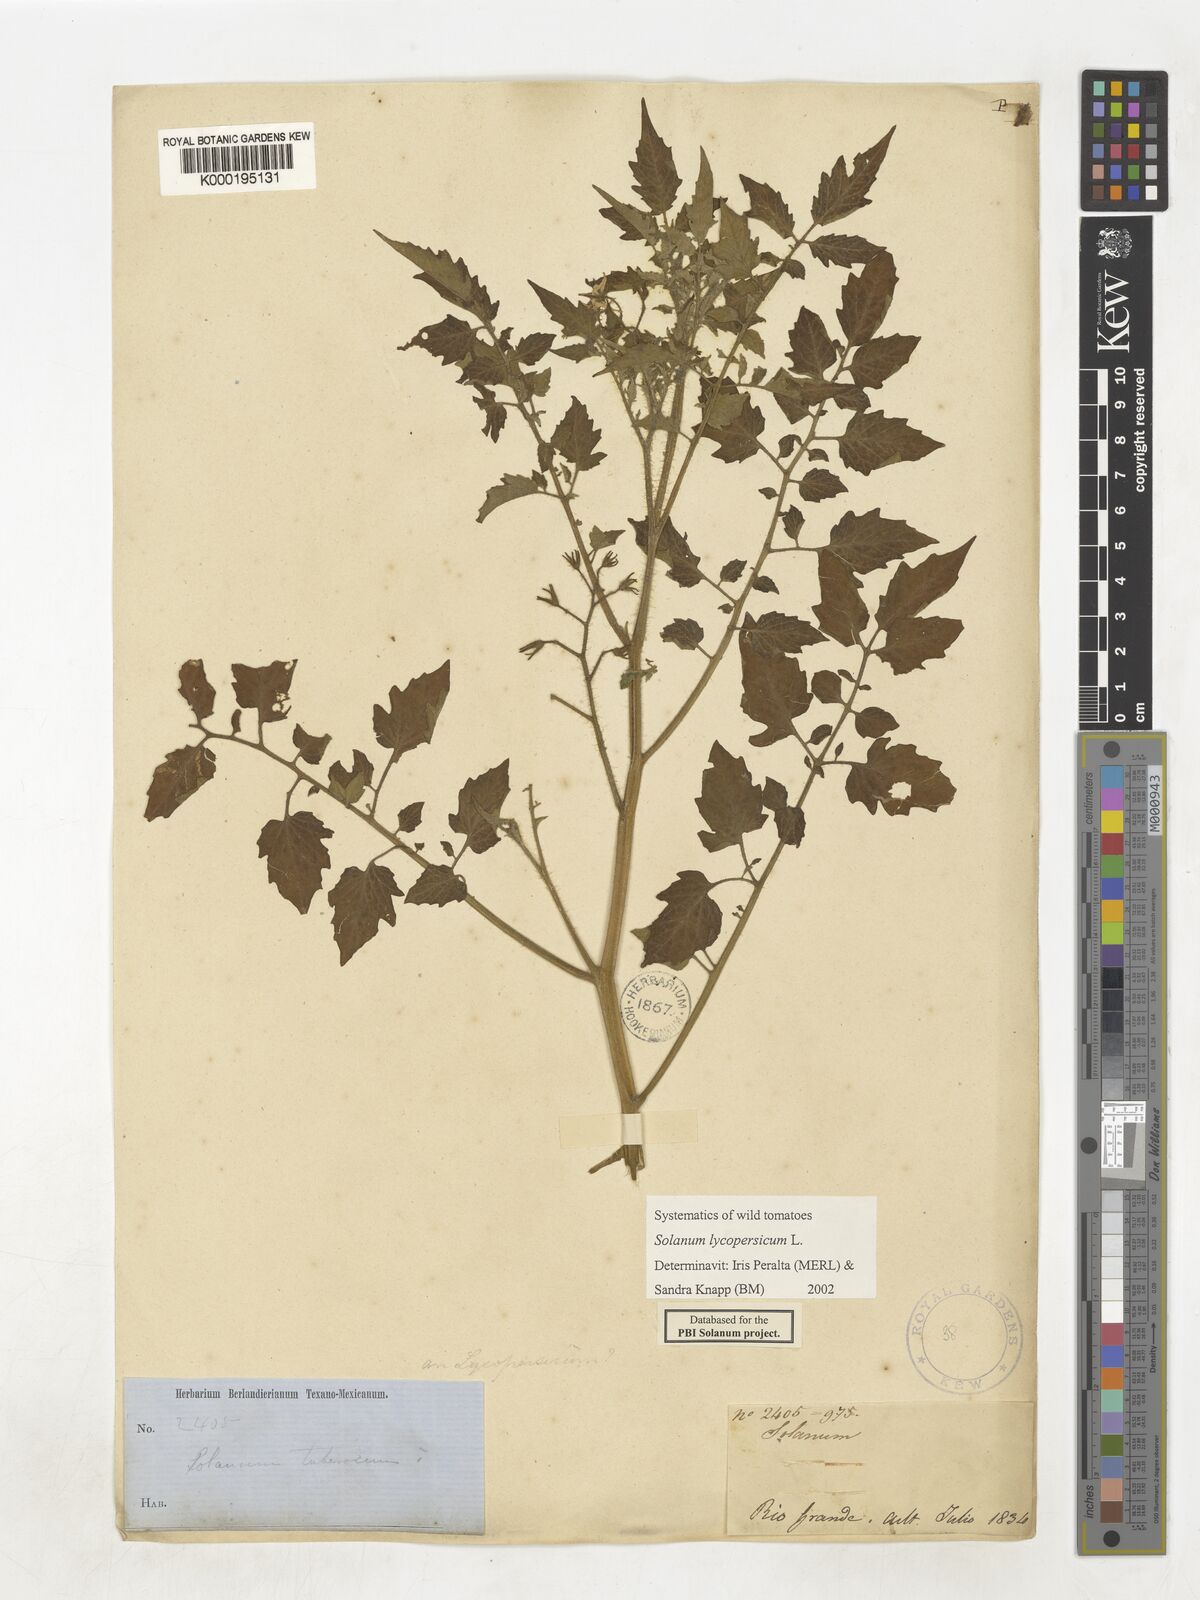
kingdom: Plantae
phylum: Tracheophyta
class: Magnoliopsida
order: Solanales
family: Solanaceae
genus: Solanum
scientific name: Solanum lycopersicum
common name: Garden tomato
